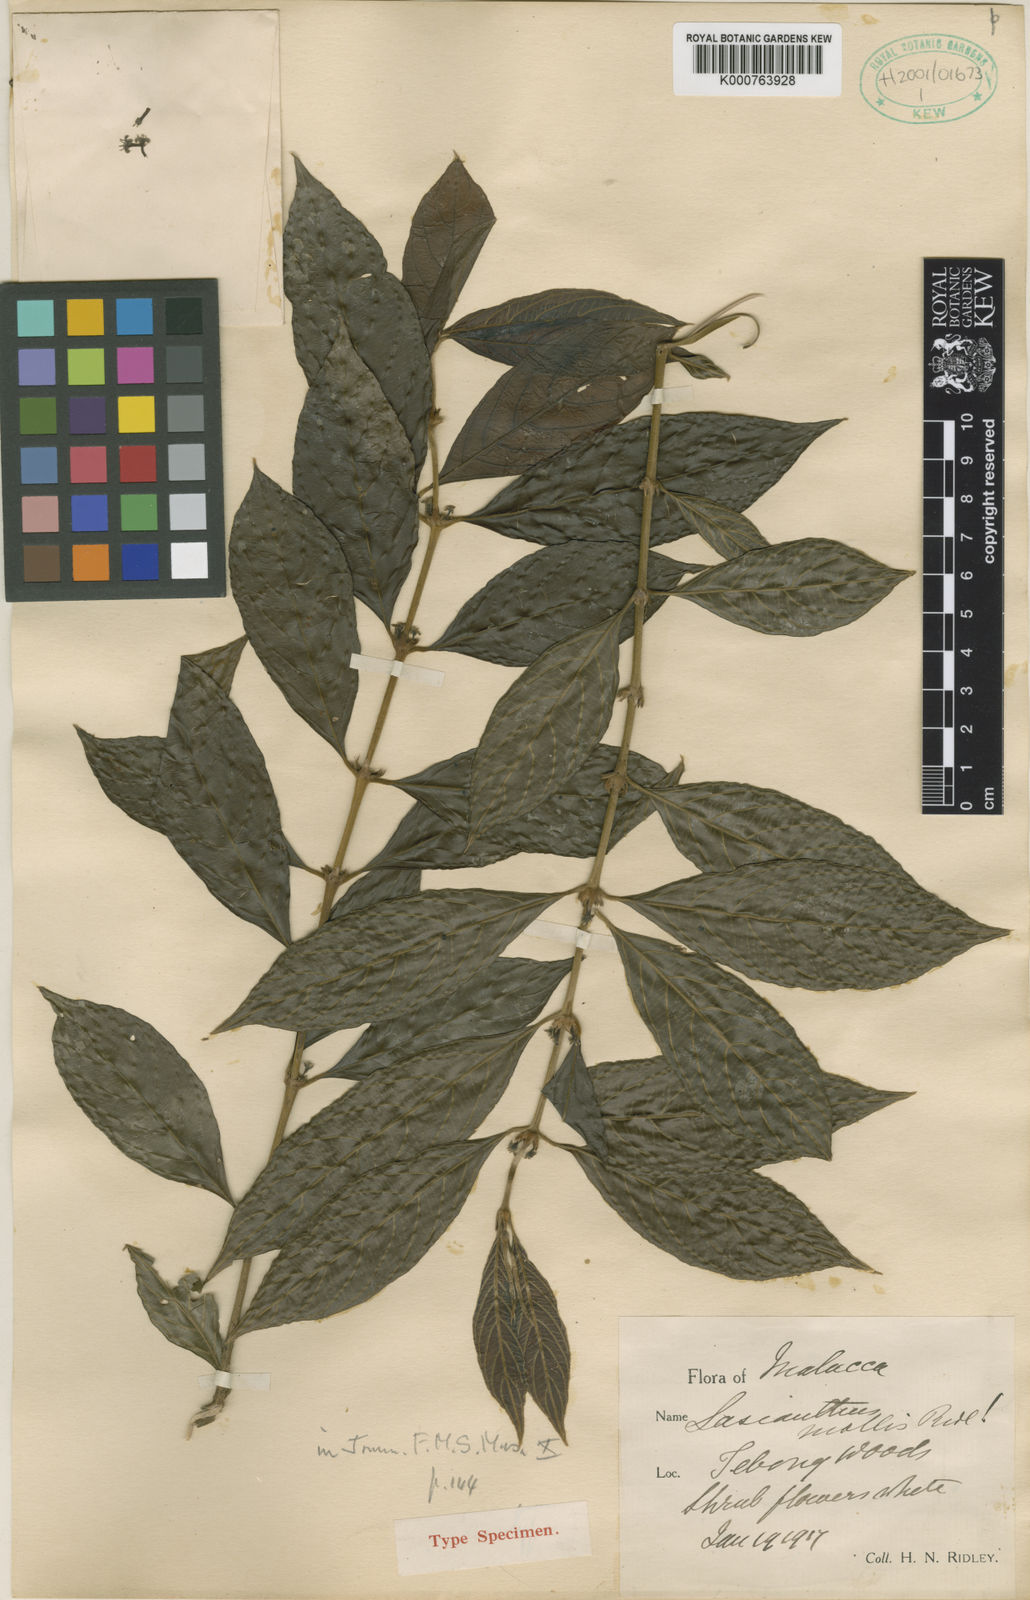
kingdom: Plantae
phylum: Tracheophyta
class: Magnoliopsida
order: Gentianales
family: Rubiaceae
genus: Lasianthus
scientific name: Lasianthus mollis
